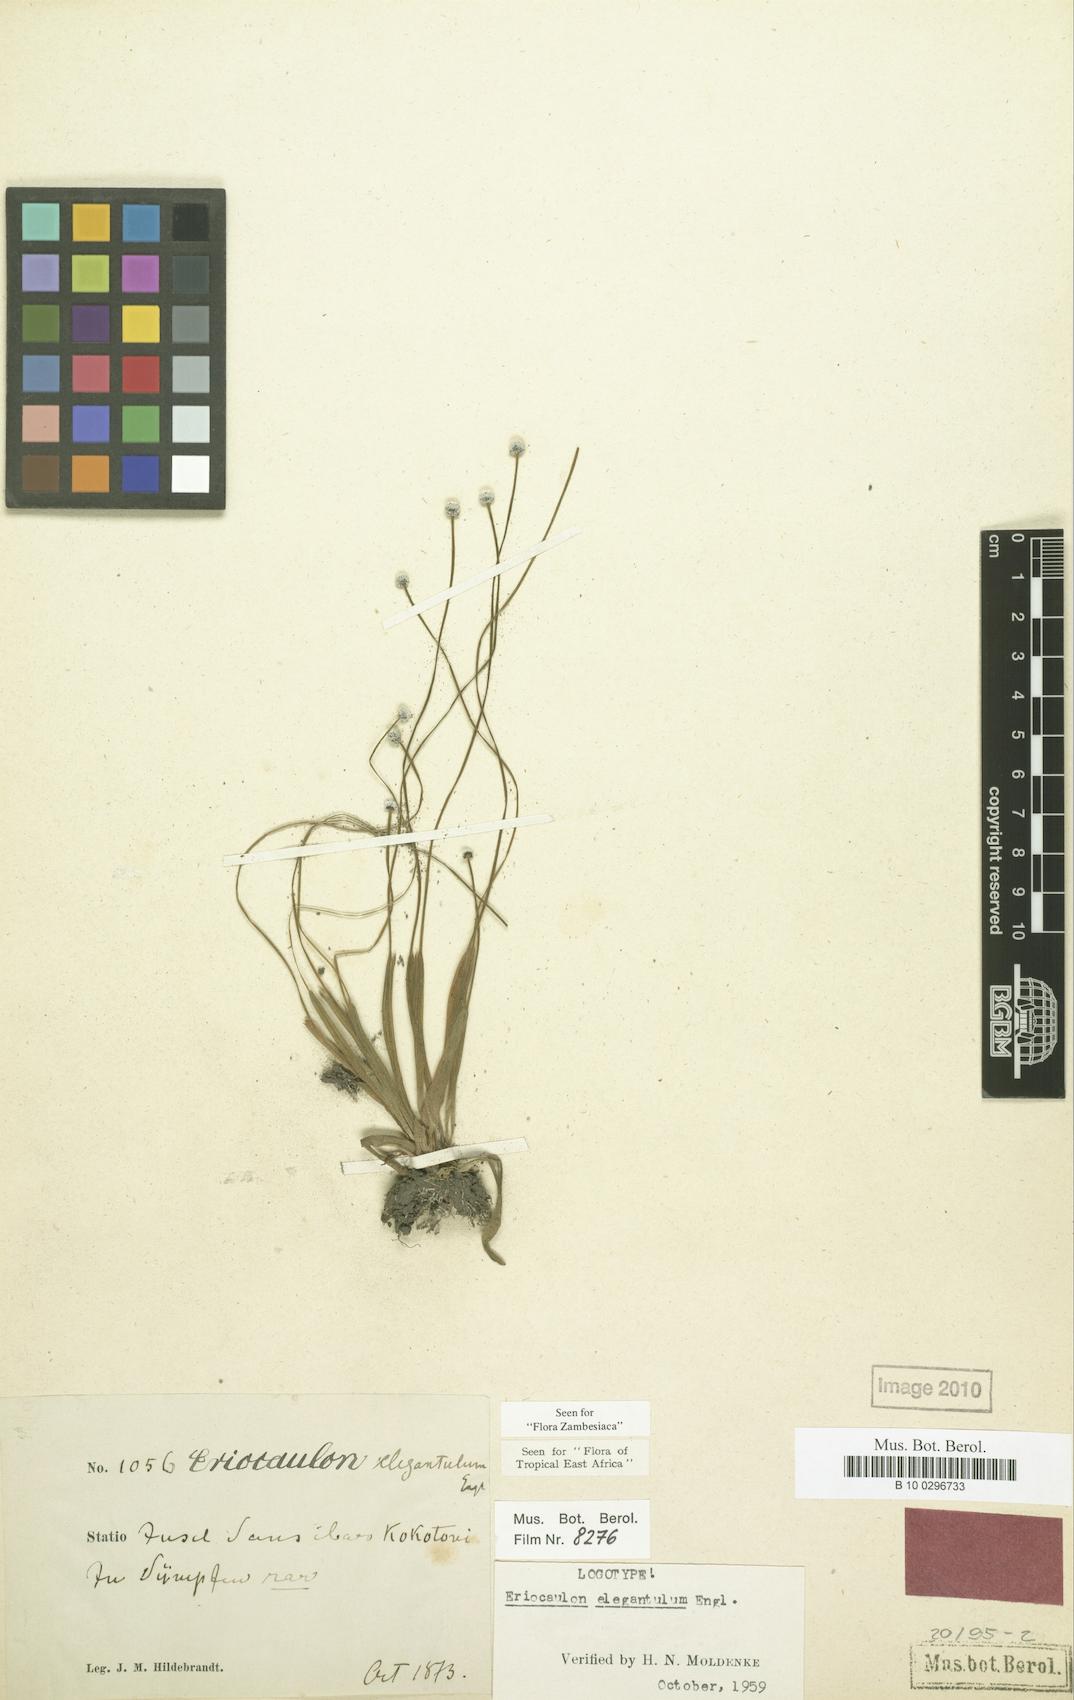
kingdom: Plantae
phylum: Tracheophyta
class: Liliopsida
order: Poales
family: Eriocaulaceae
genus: Eriocaulon
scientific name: Eriocaulon elegantulum
